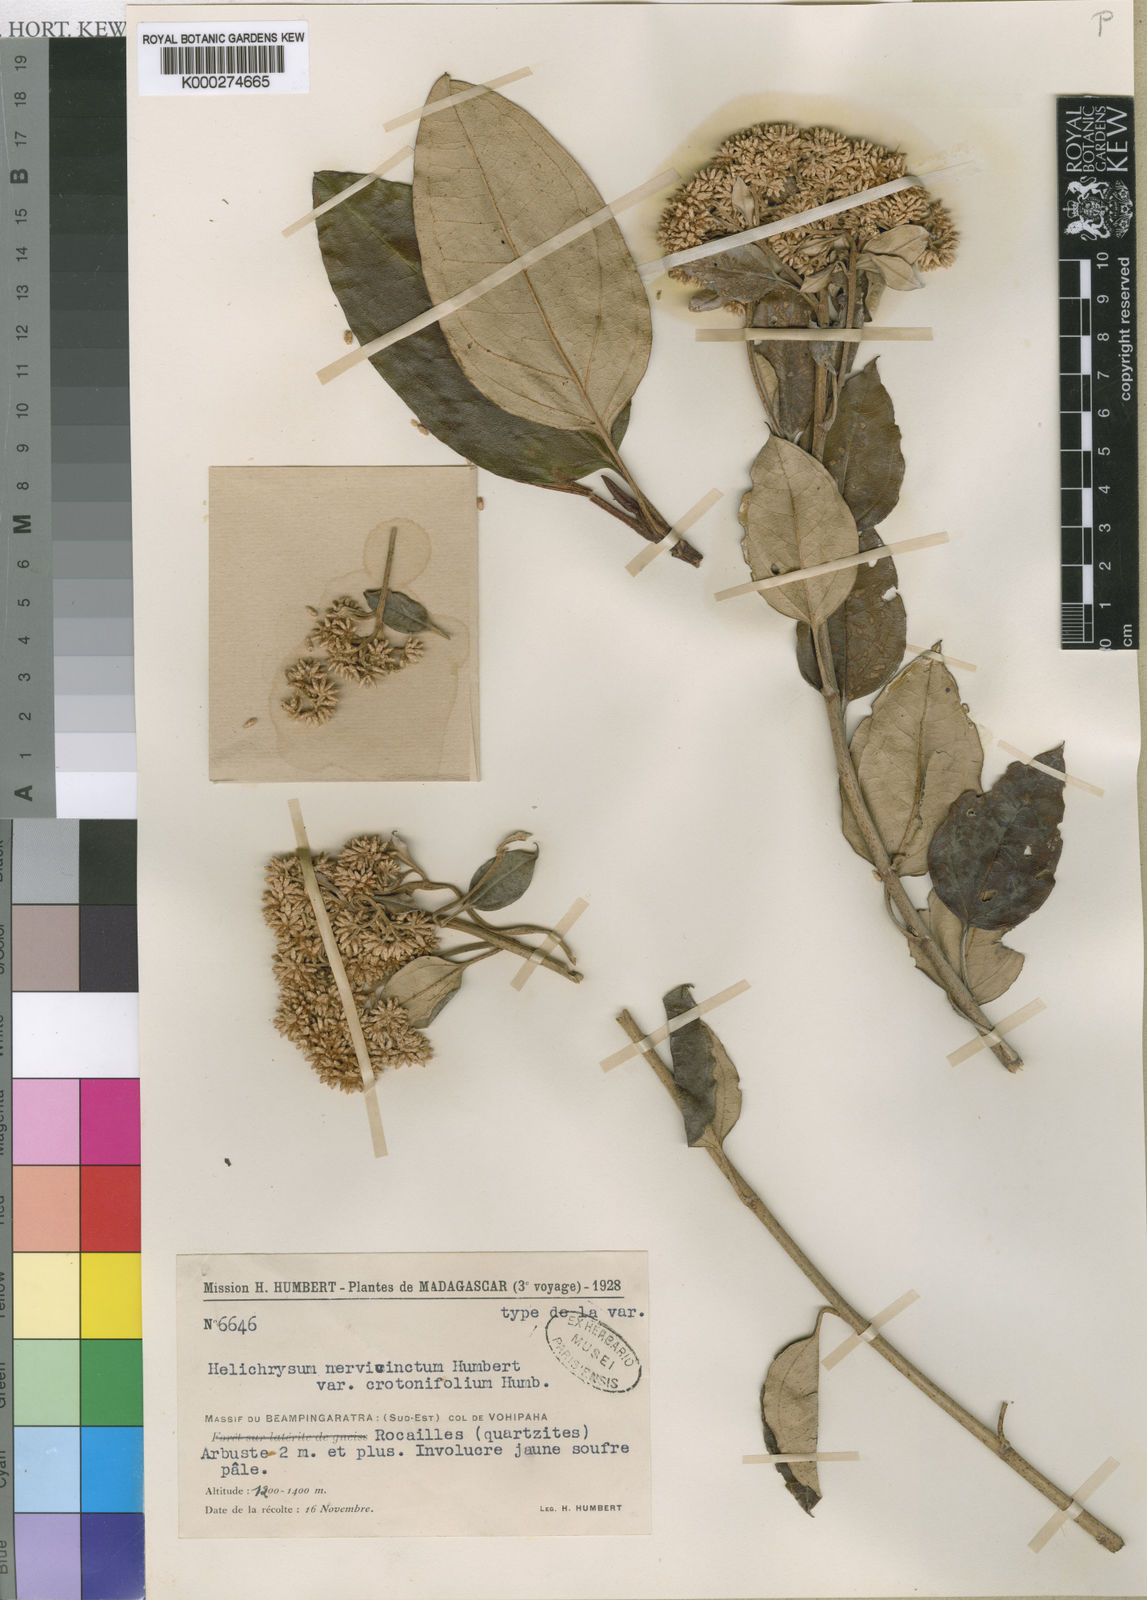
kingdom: Plantae
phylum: Tracheophyta
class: Magnoliopsida
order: Asterales
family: Asteraceae
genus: Helichrysum
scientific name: Helichrysum nervicinctum
